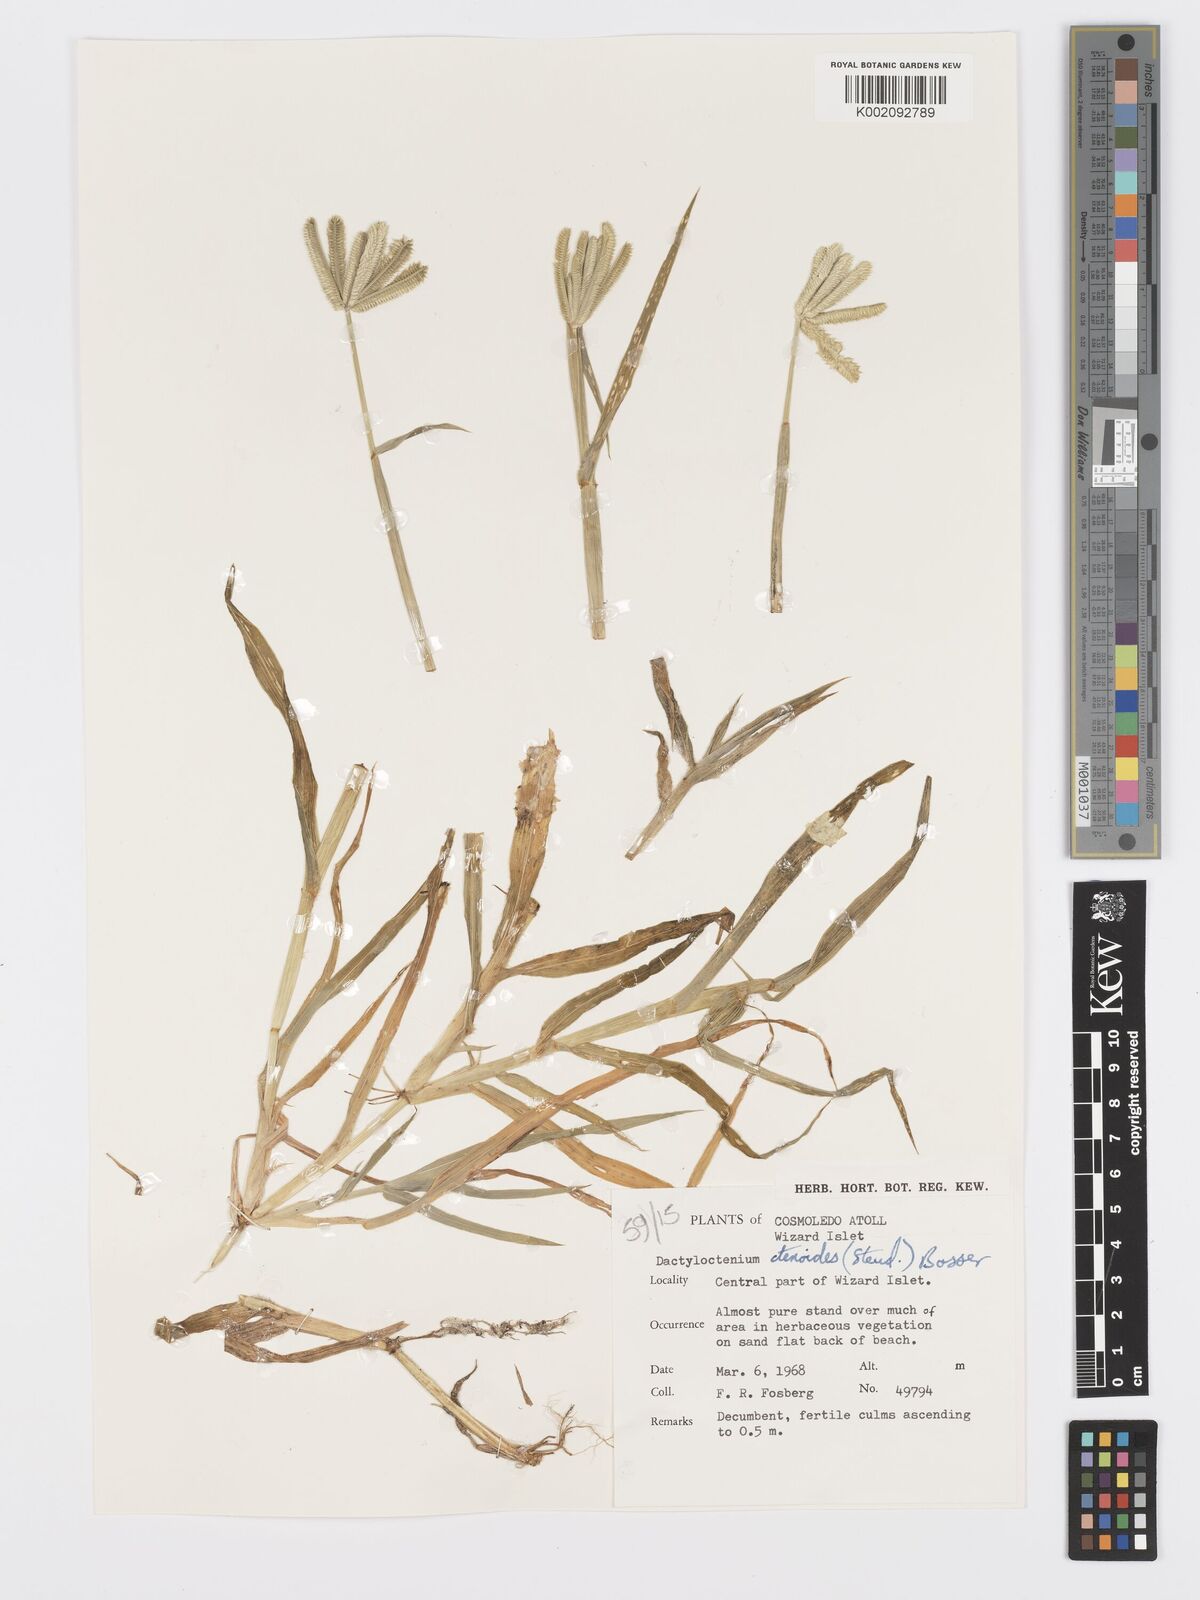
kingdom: Plantae
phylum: Tracheophyta
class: Liliopsida
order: Poales
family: Poaceae
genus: Dactyloctenium
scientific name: Dactyloctenium ctenoides
